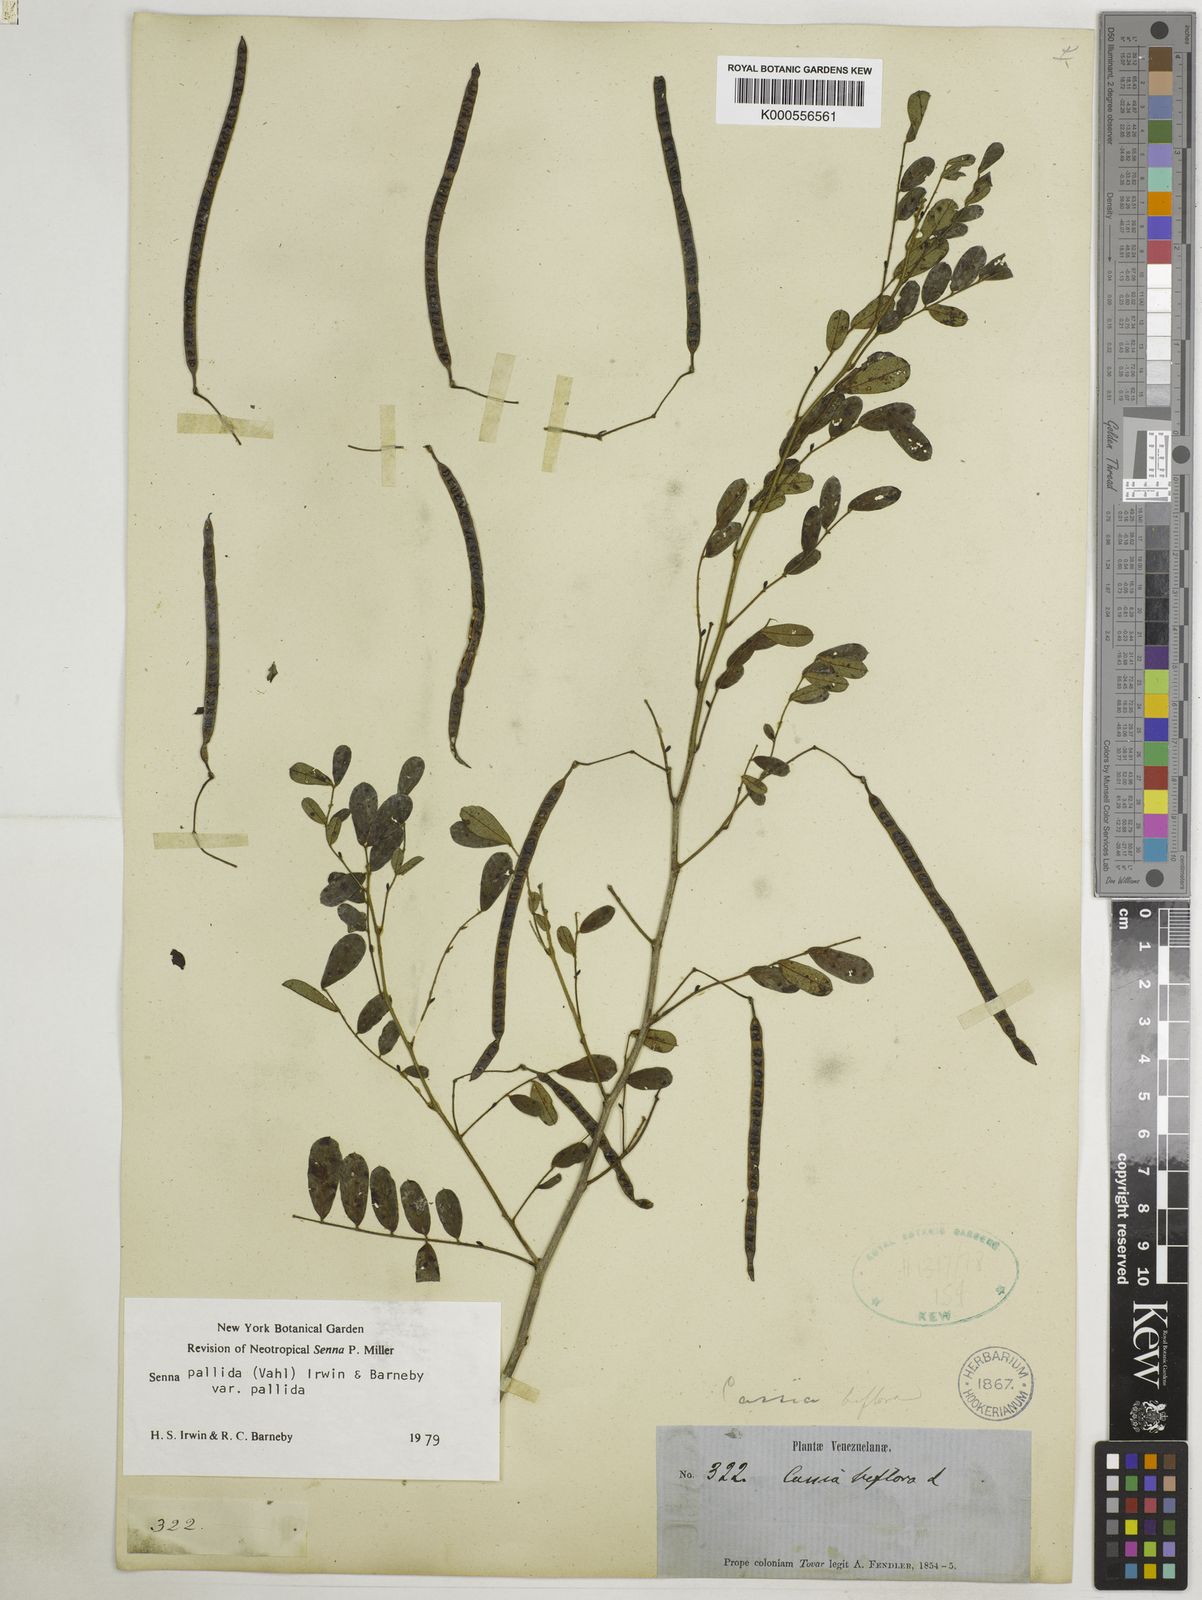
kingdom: Plantae
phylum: Tracheophyta
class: Magnoliopsida
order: Fabales
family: Fabaceae
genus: Senna
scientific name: Senna pallida
